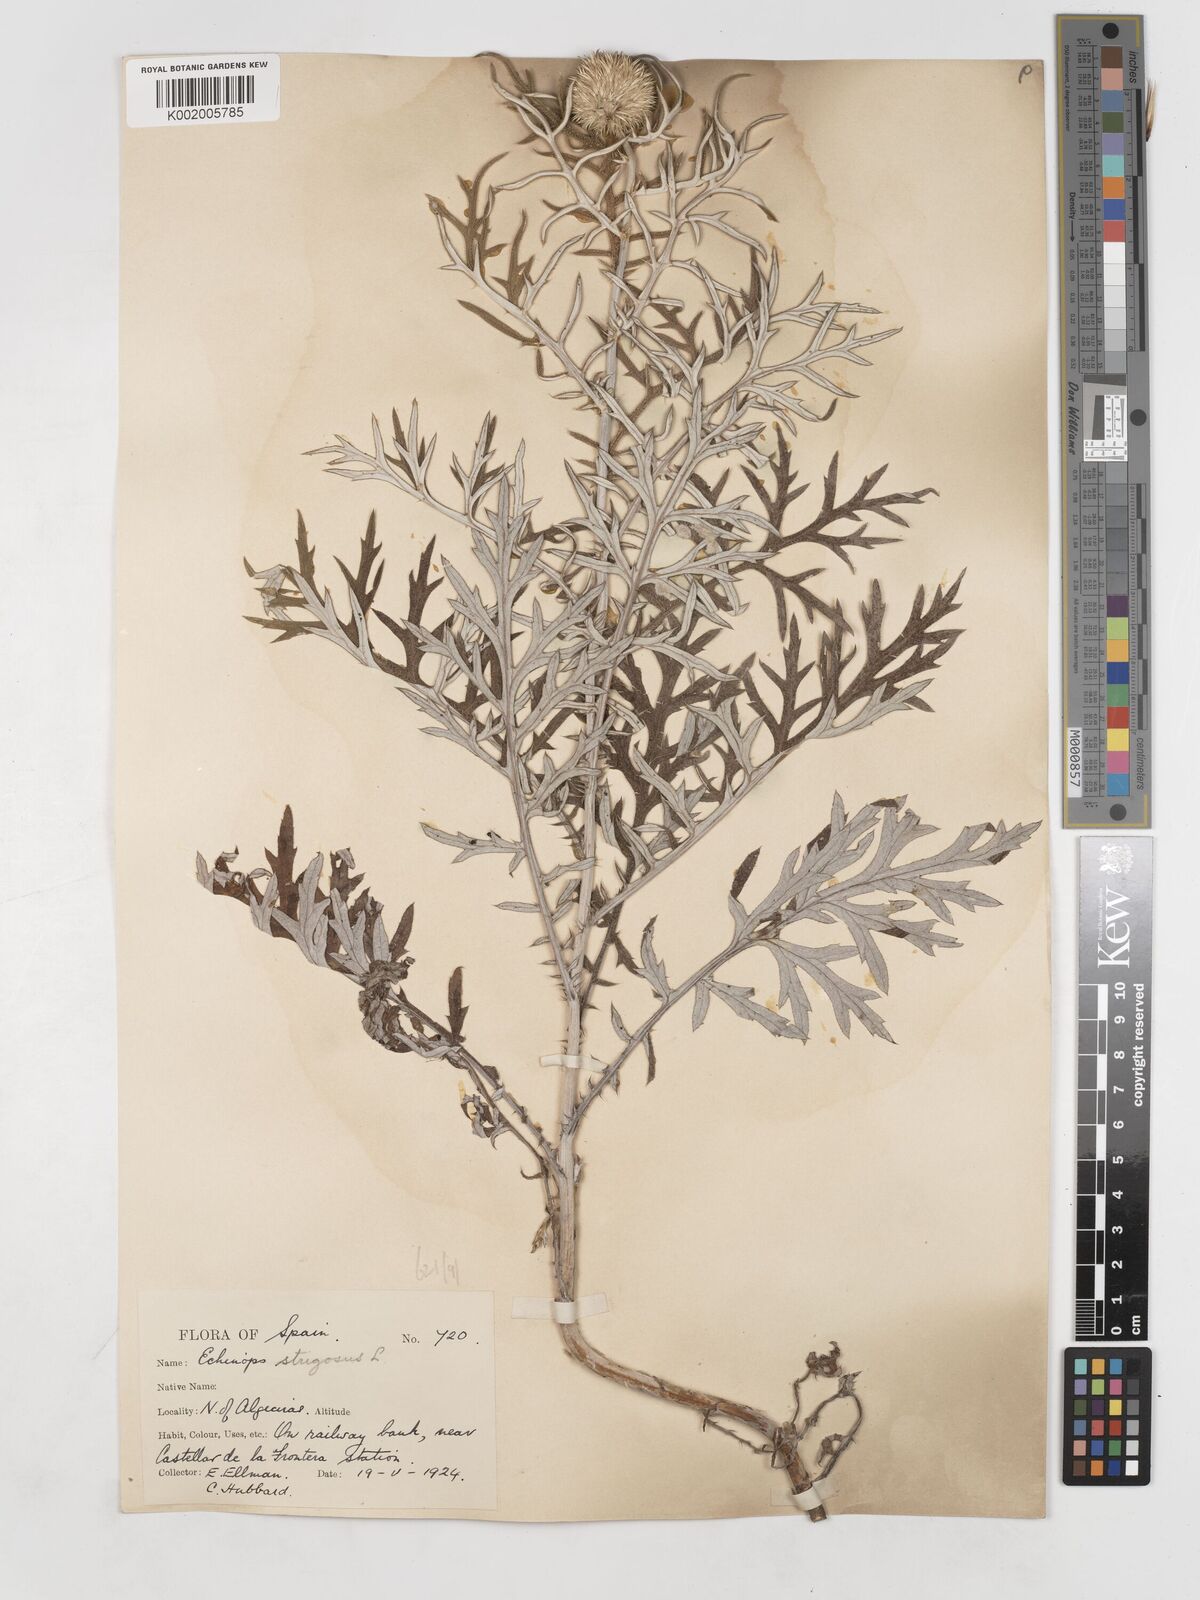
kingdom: Plantae
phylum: Tracheophyta
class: Magnoliopsida
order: Asterales
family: Asteraceae
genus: Echinops
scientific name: Echinops strigosus
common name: Rough-leaf globe thistle
